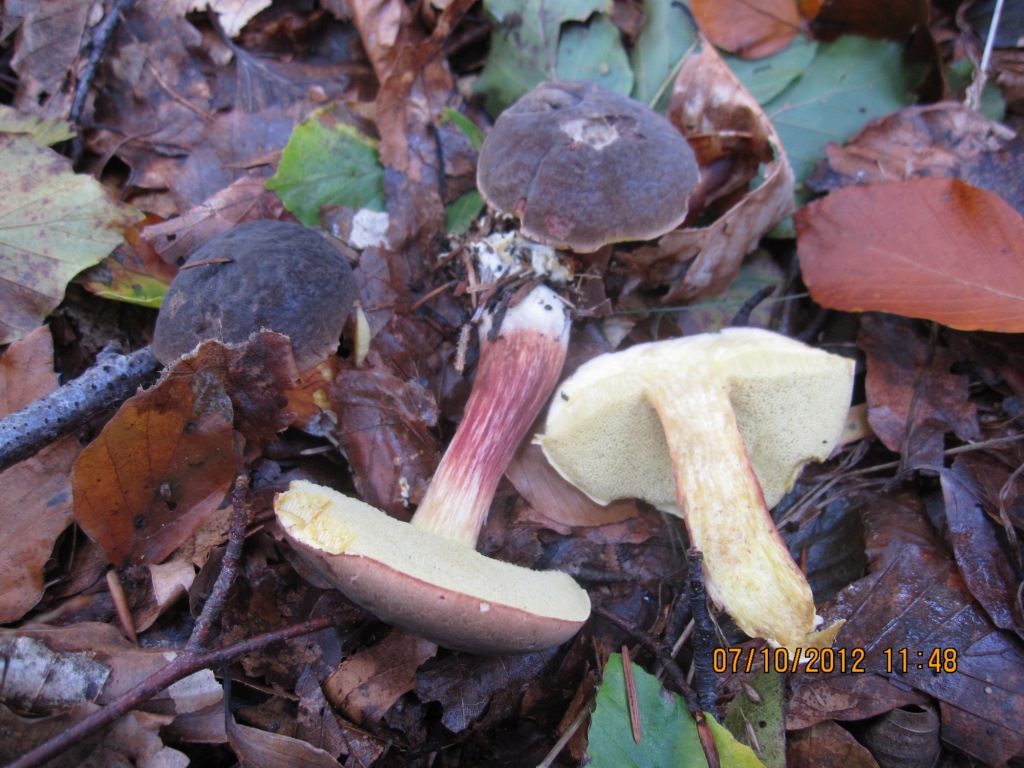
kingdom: Fungi
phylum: Basidiomycota
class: Agaricomycetes
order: Boletales
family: Boletaceae
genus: Xerocomellus
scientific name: Xerocomellus pruinatus
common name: dugget rørhat
